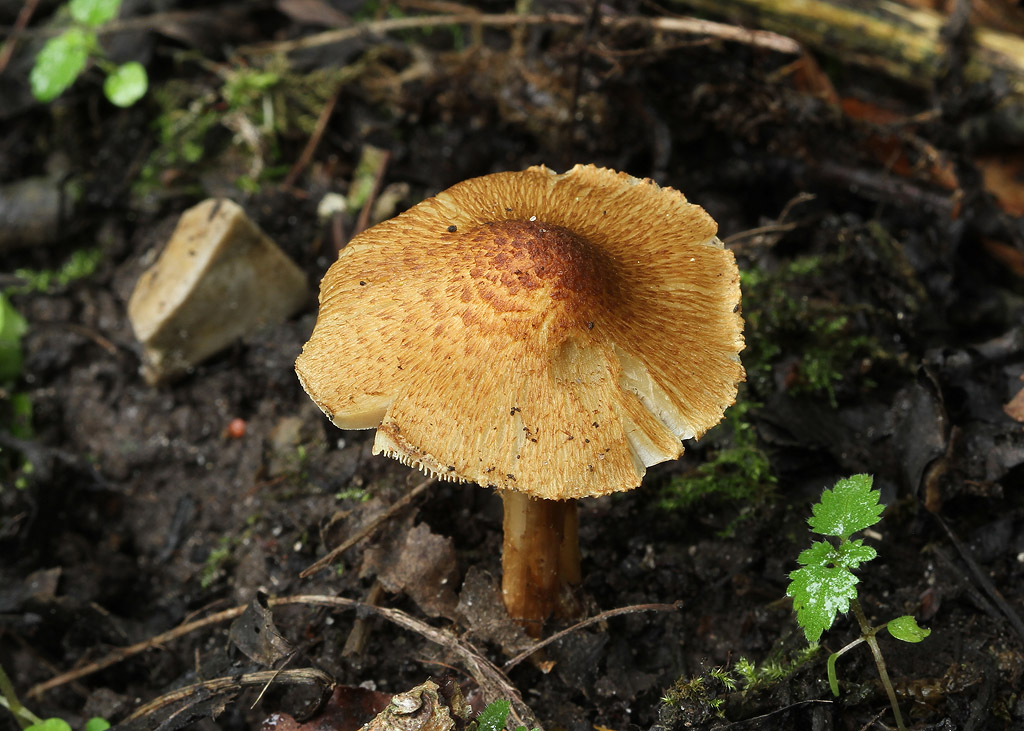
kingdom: Fungi
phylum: Basidiomycota
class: Agaricomycetes
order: Agaricales
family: Inocybaceae
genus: Pseudosperma
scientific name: Pseudosperma squamatum
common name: topskællet trævlhat
